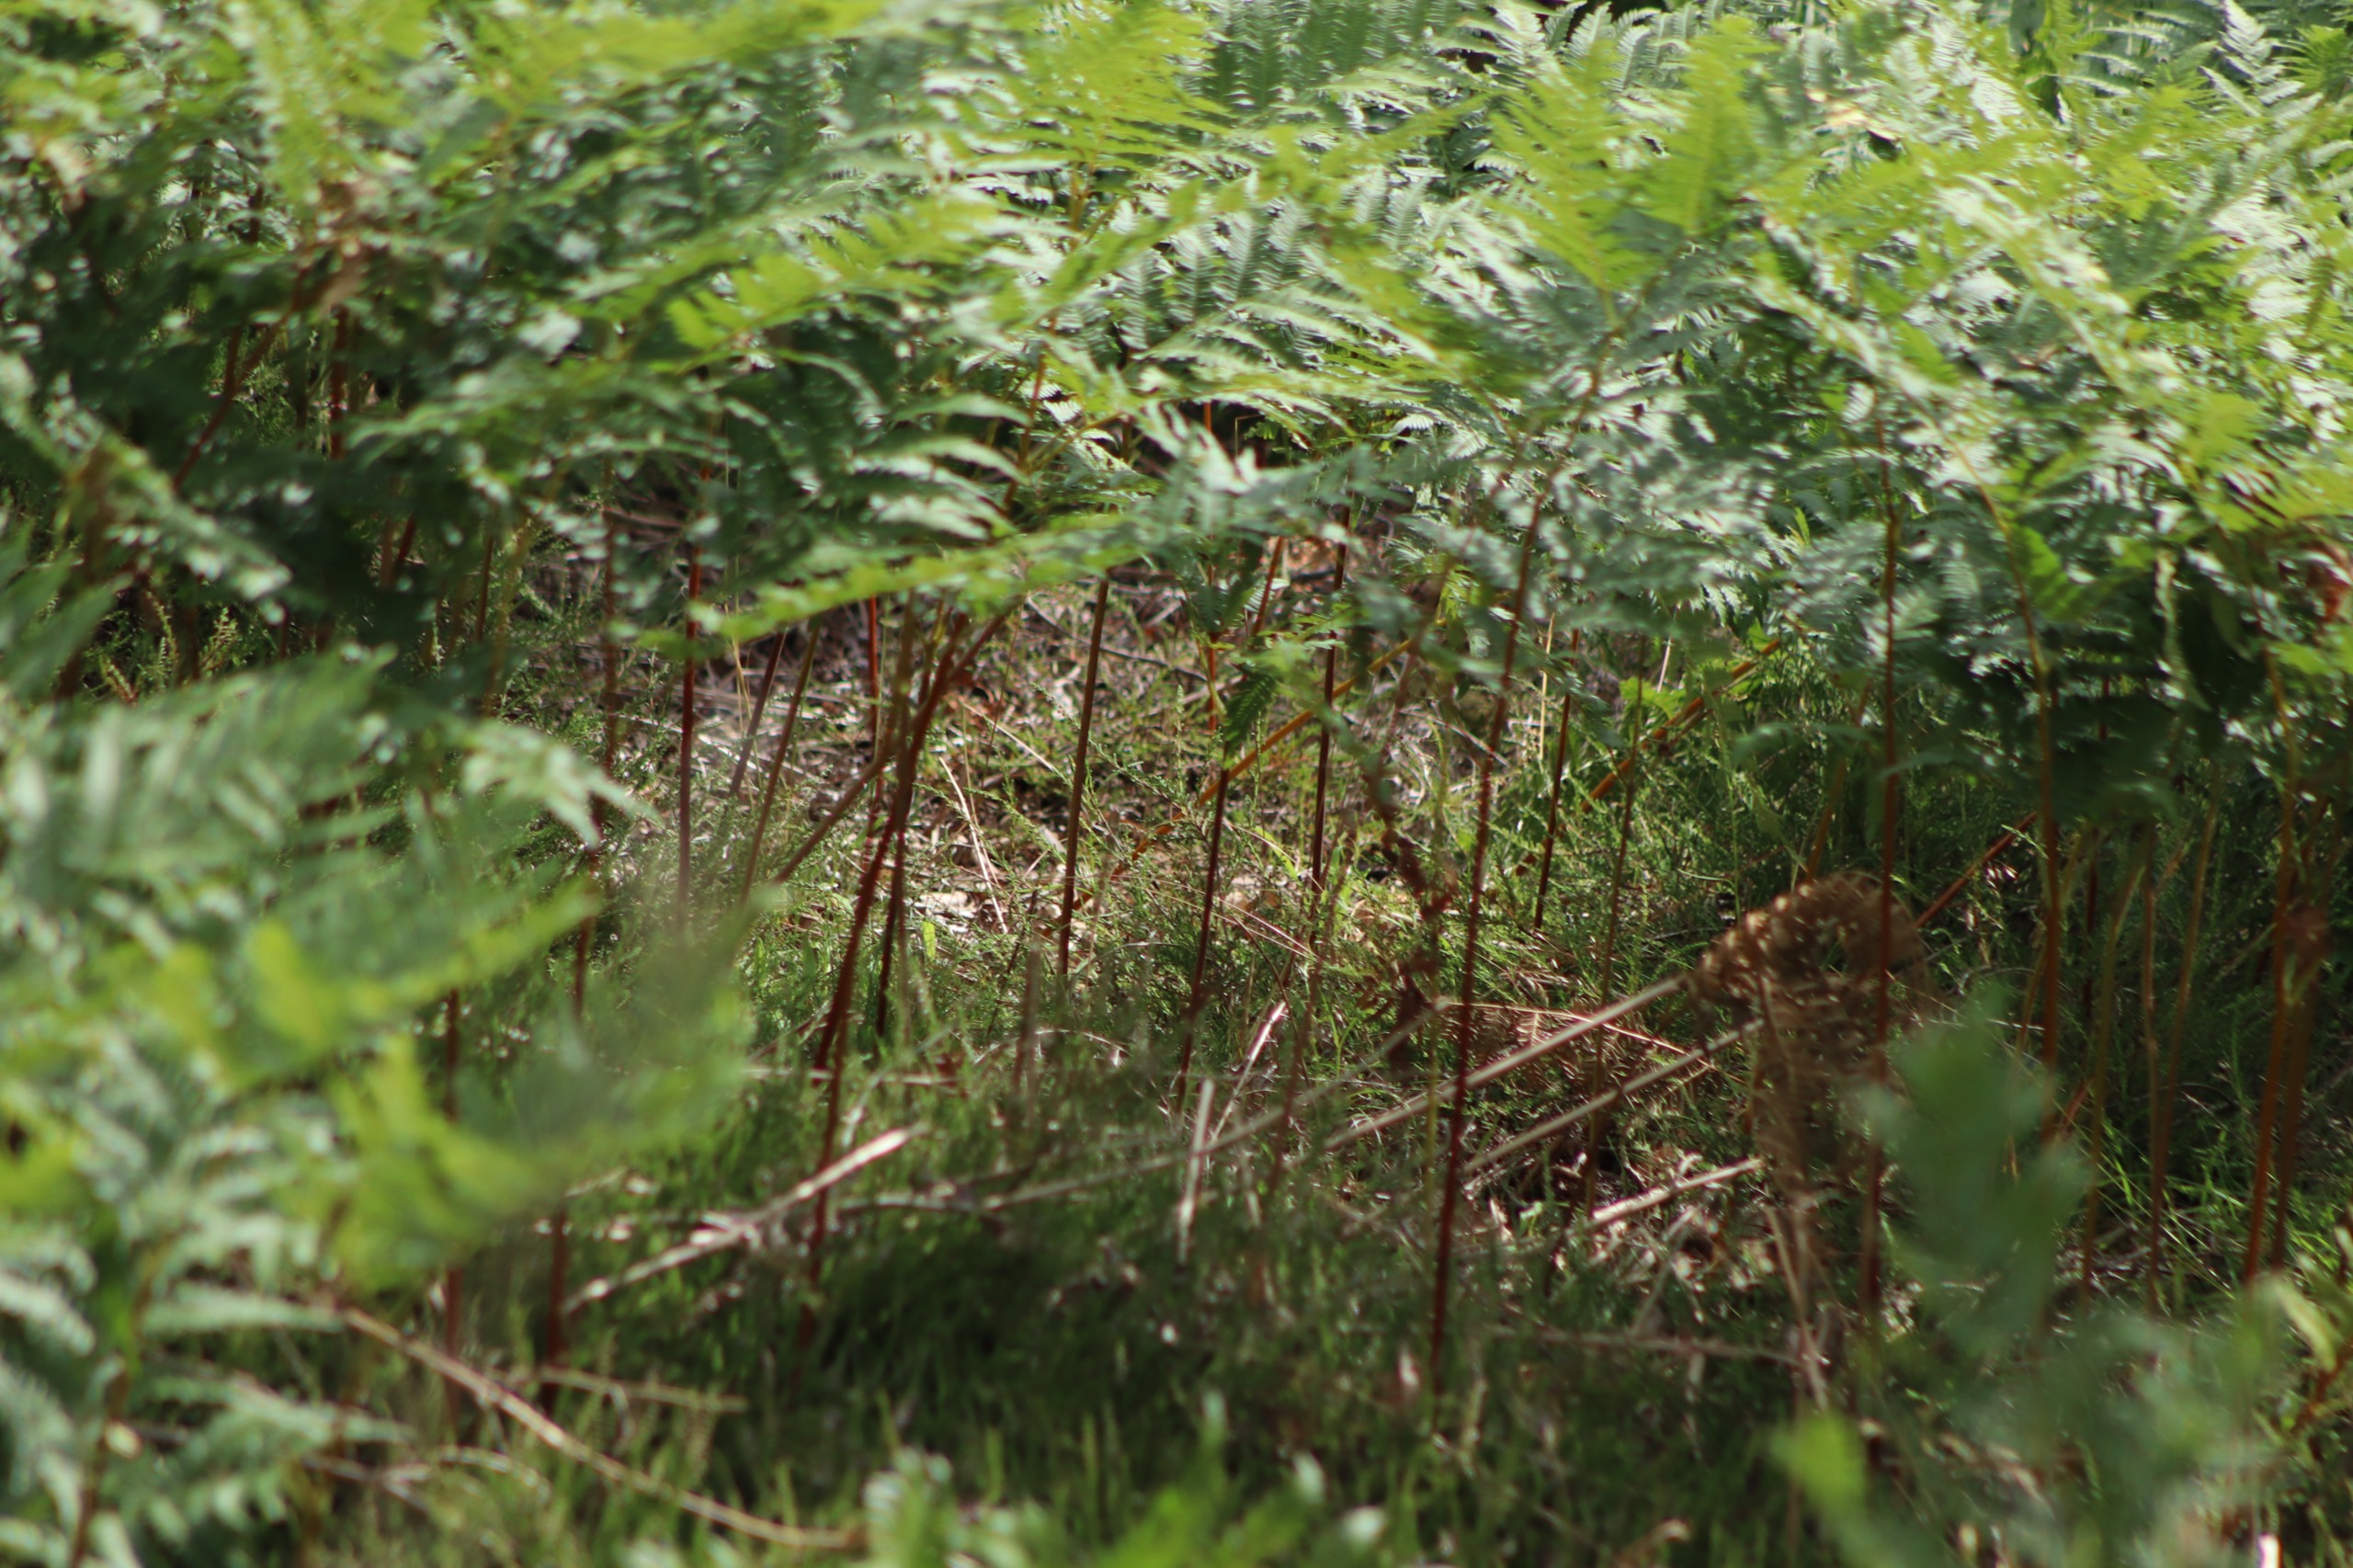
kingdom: Plantae
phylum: Tracheophyta
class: Polypodiopsida
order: Polypodiales
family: Dennstaedtiaceae
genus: Pteridium
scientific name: Pteridium aquilinum
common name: Ørnebregne
